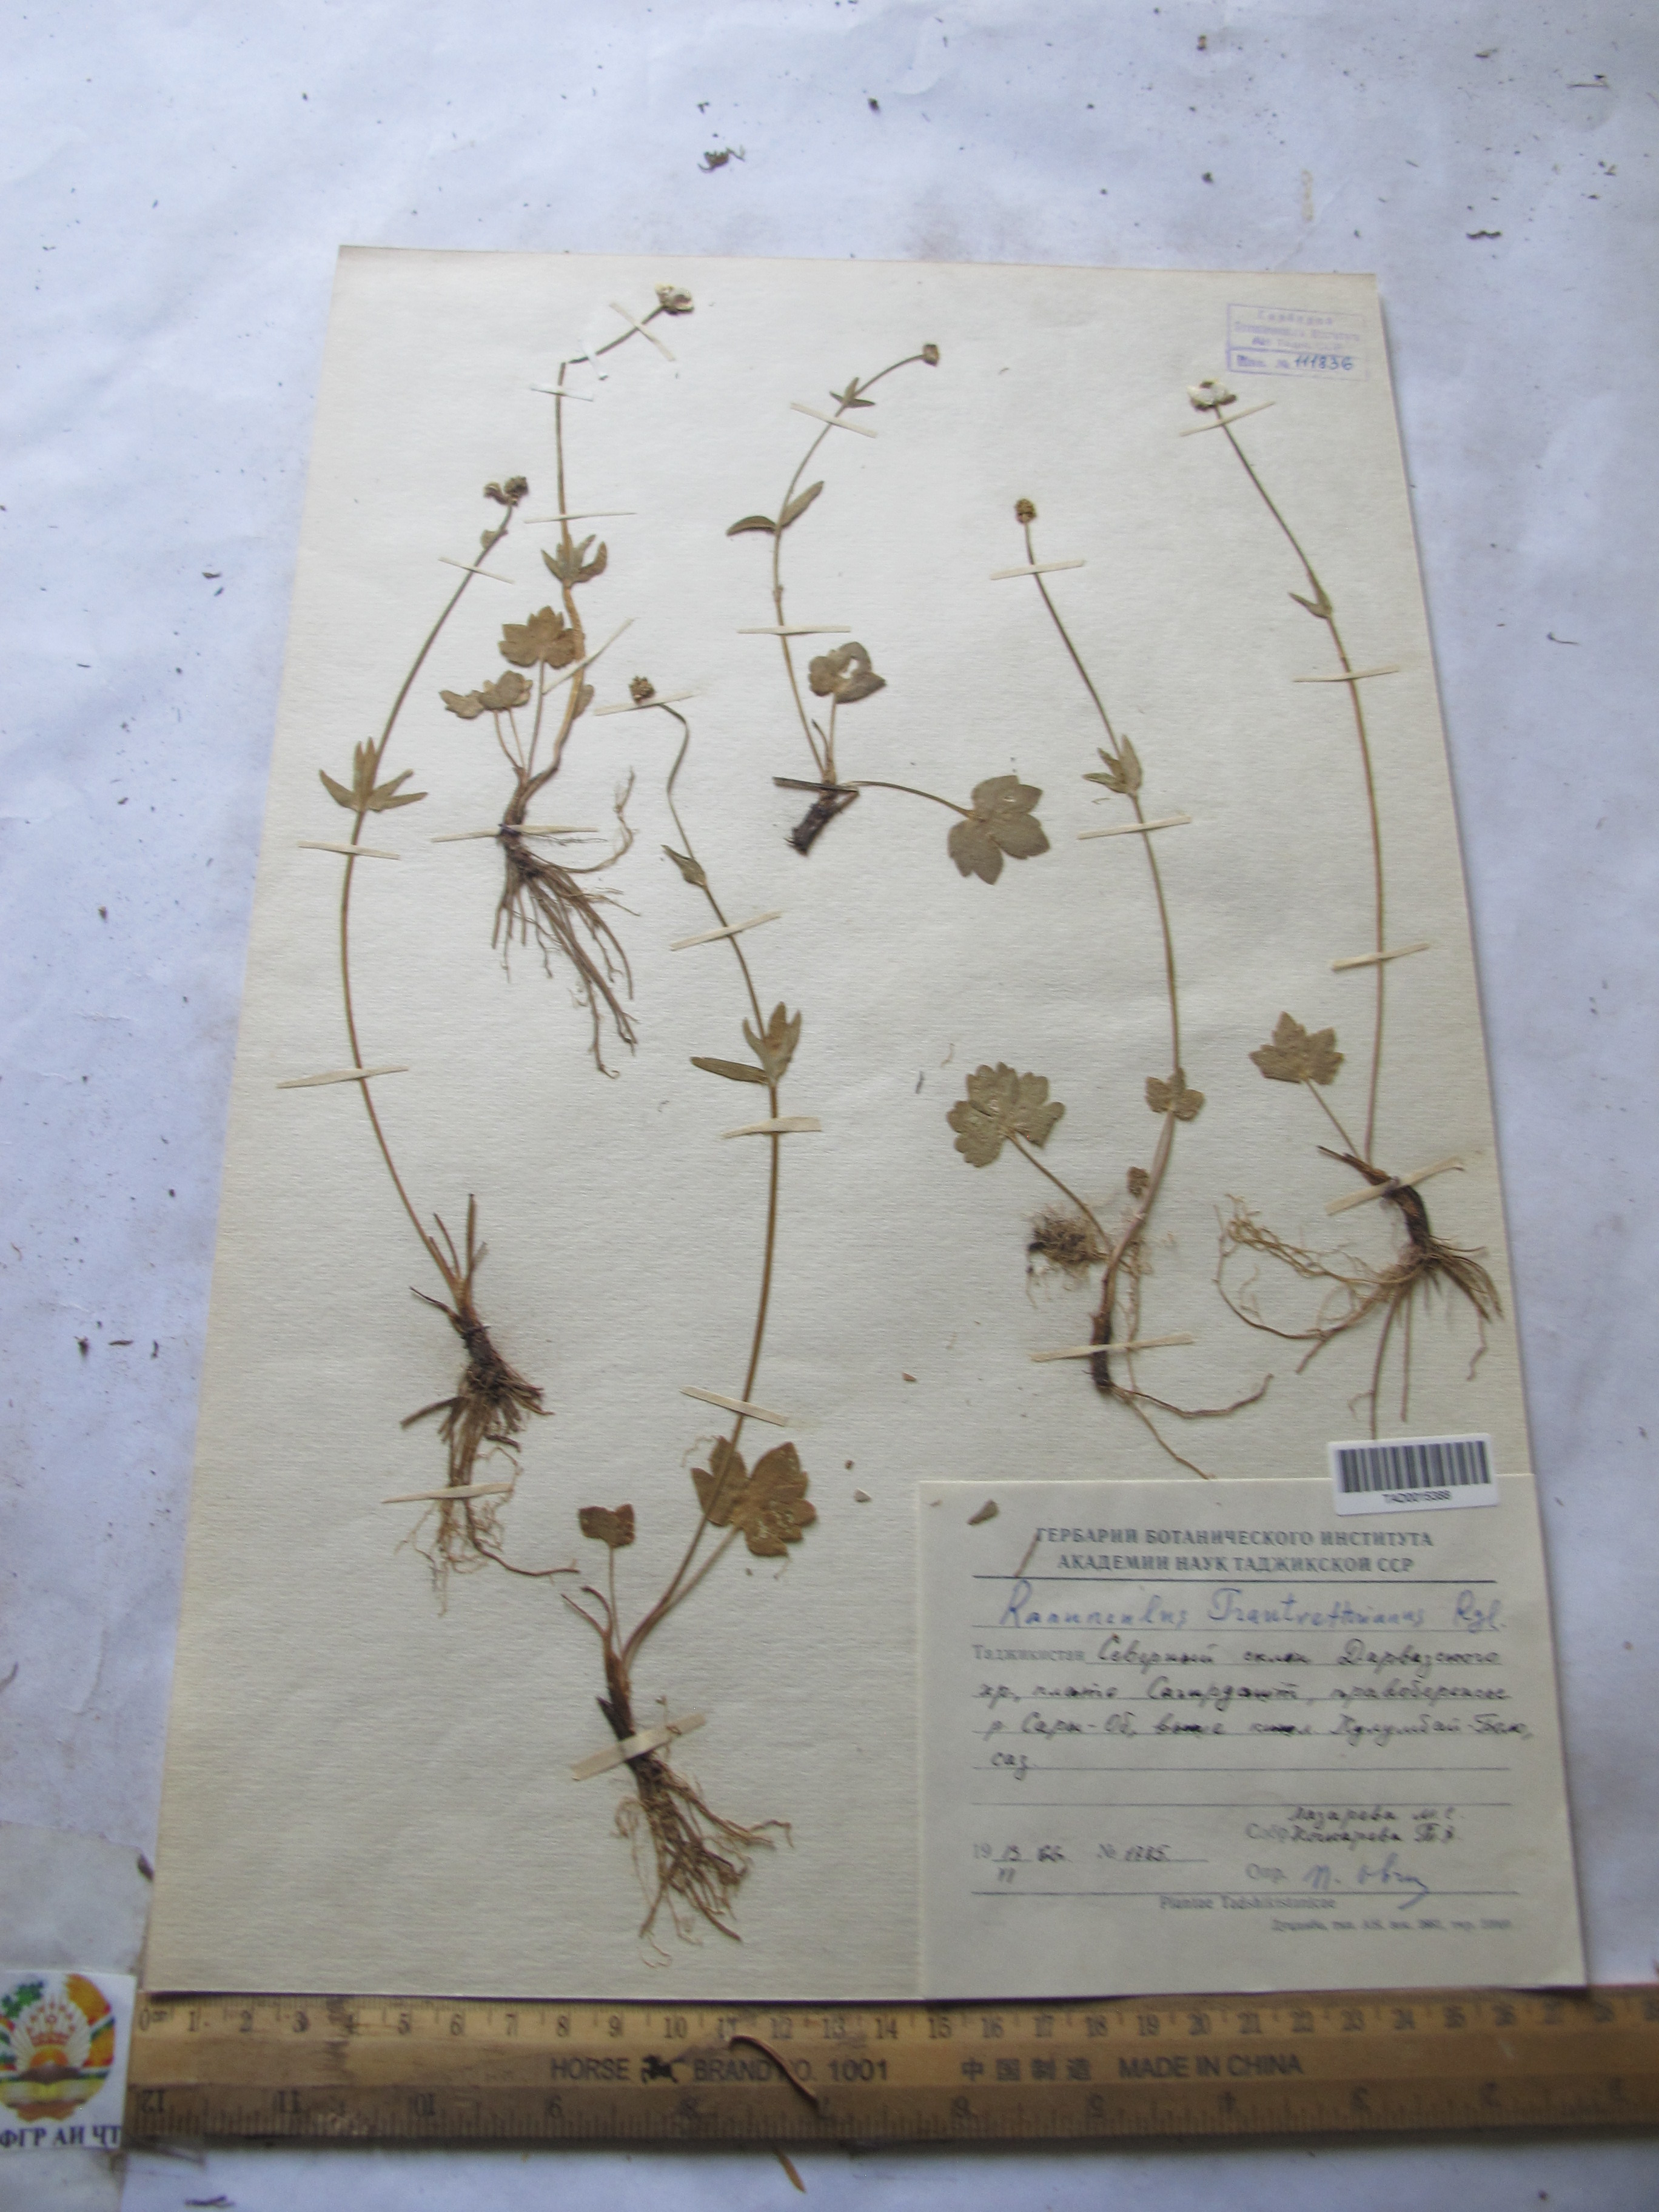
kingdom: Plantae
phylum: Tracheophyta
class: Magnoliopsida
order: Ranunculales
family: Ranunculaceae
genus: Ranunculus
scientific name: Ranunculus songaricus
